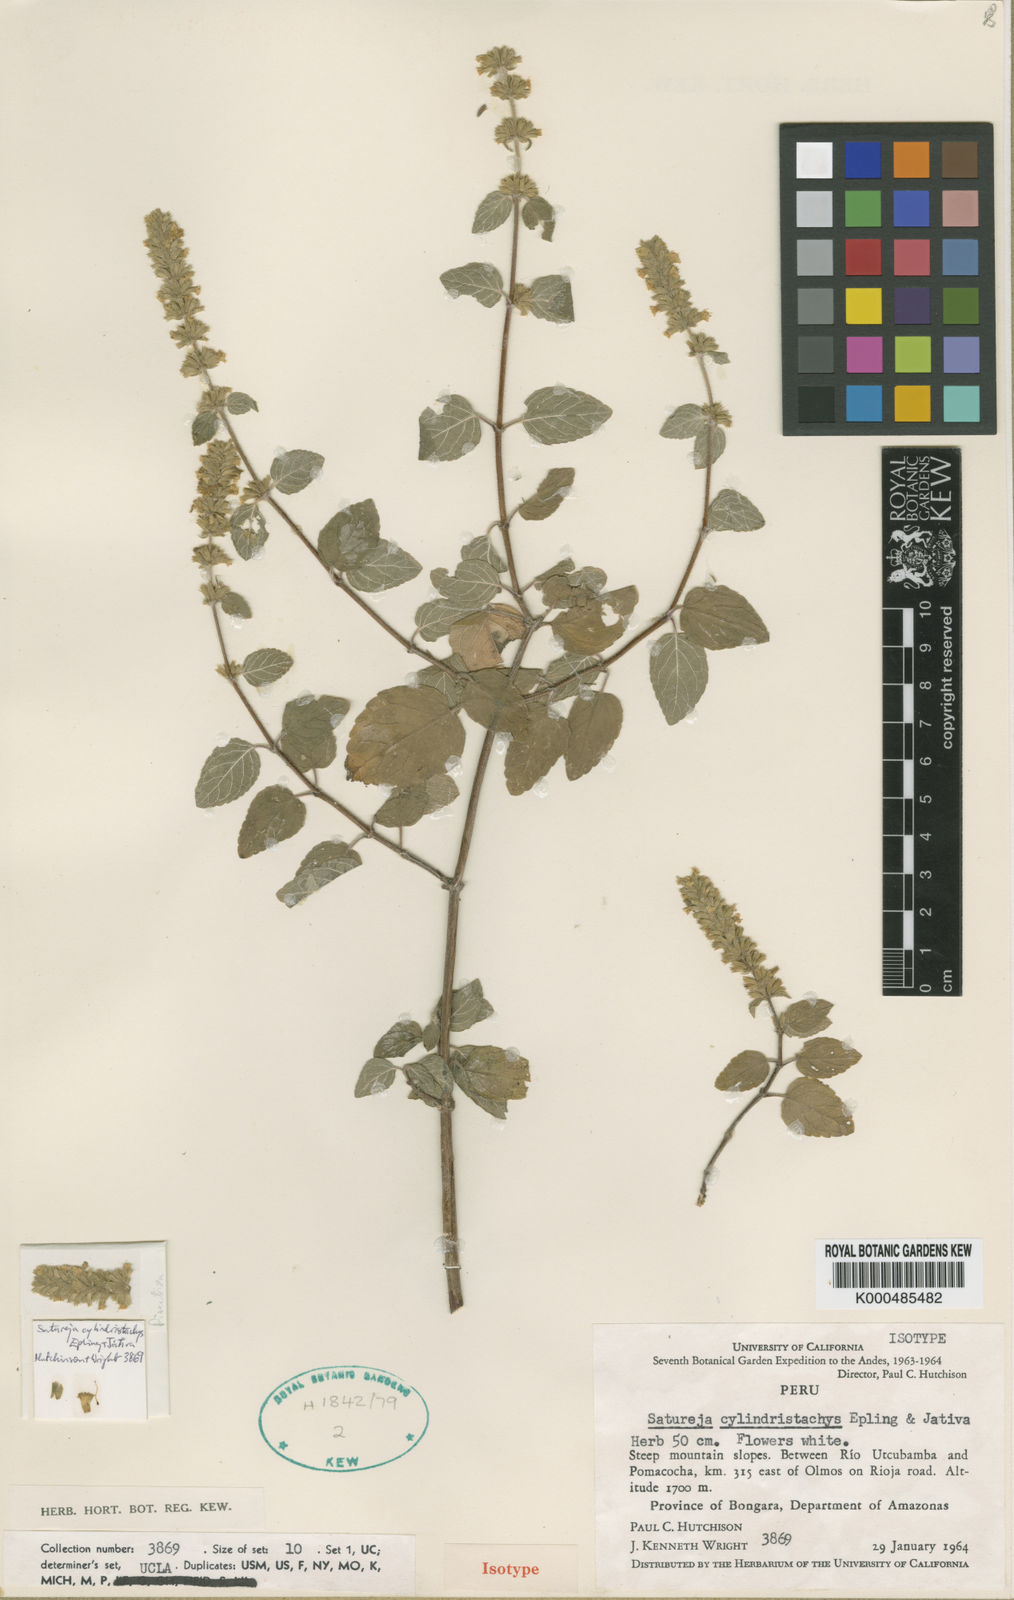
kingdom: Plantae
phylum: Tracheophyta
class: Magnoliopsida
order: Lamiales
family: Lamiaceae
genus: Clinopodium
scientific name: Clinopodium
